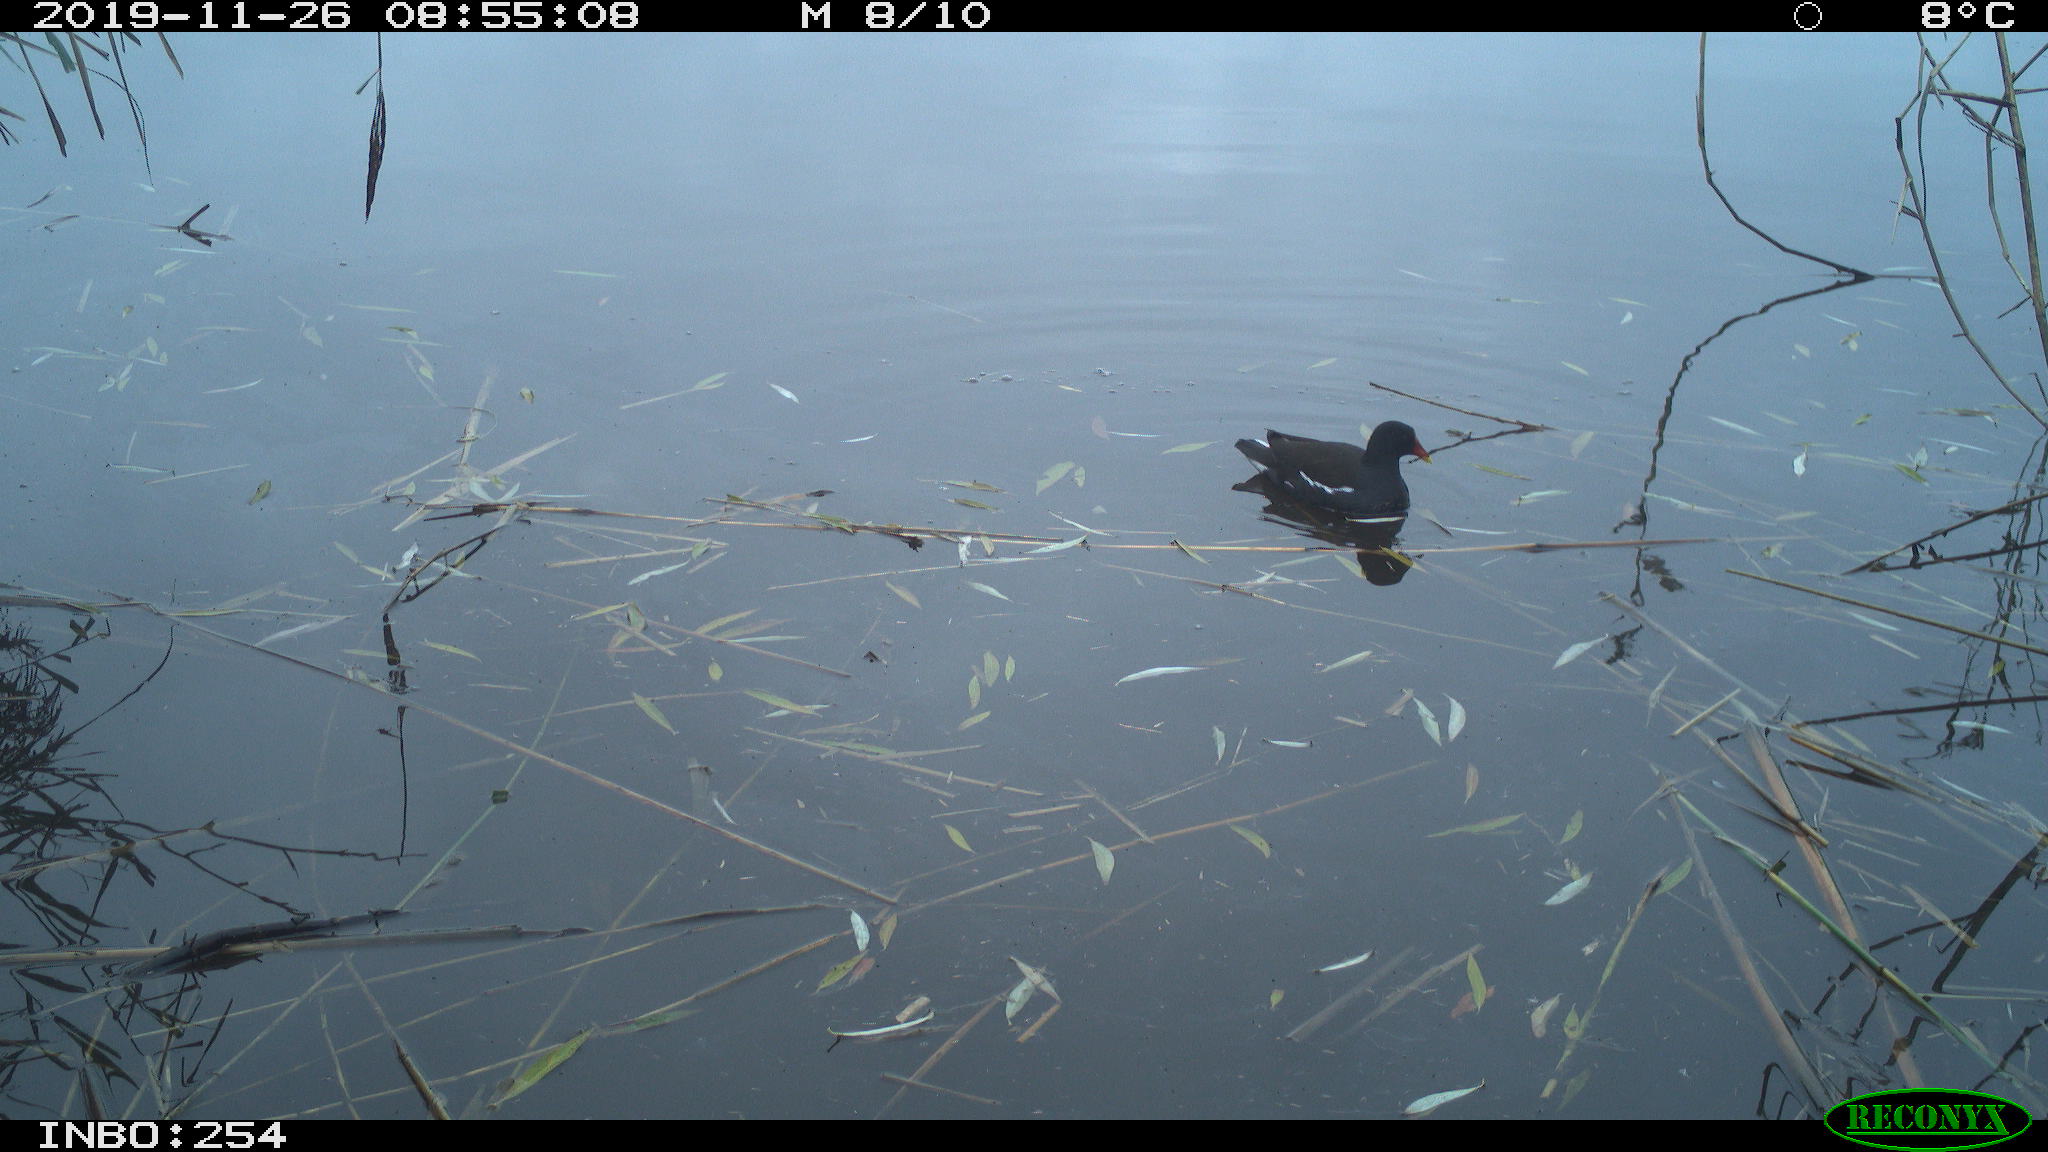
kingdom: Animalia
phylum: Chordata
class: Aves
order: Gruiformes
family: Rallidae
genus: Gallinula
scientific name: Gallinula chloropus
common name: Common moorhen
